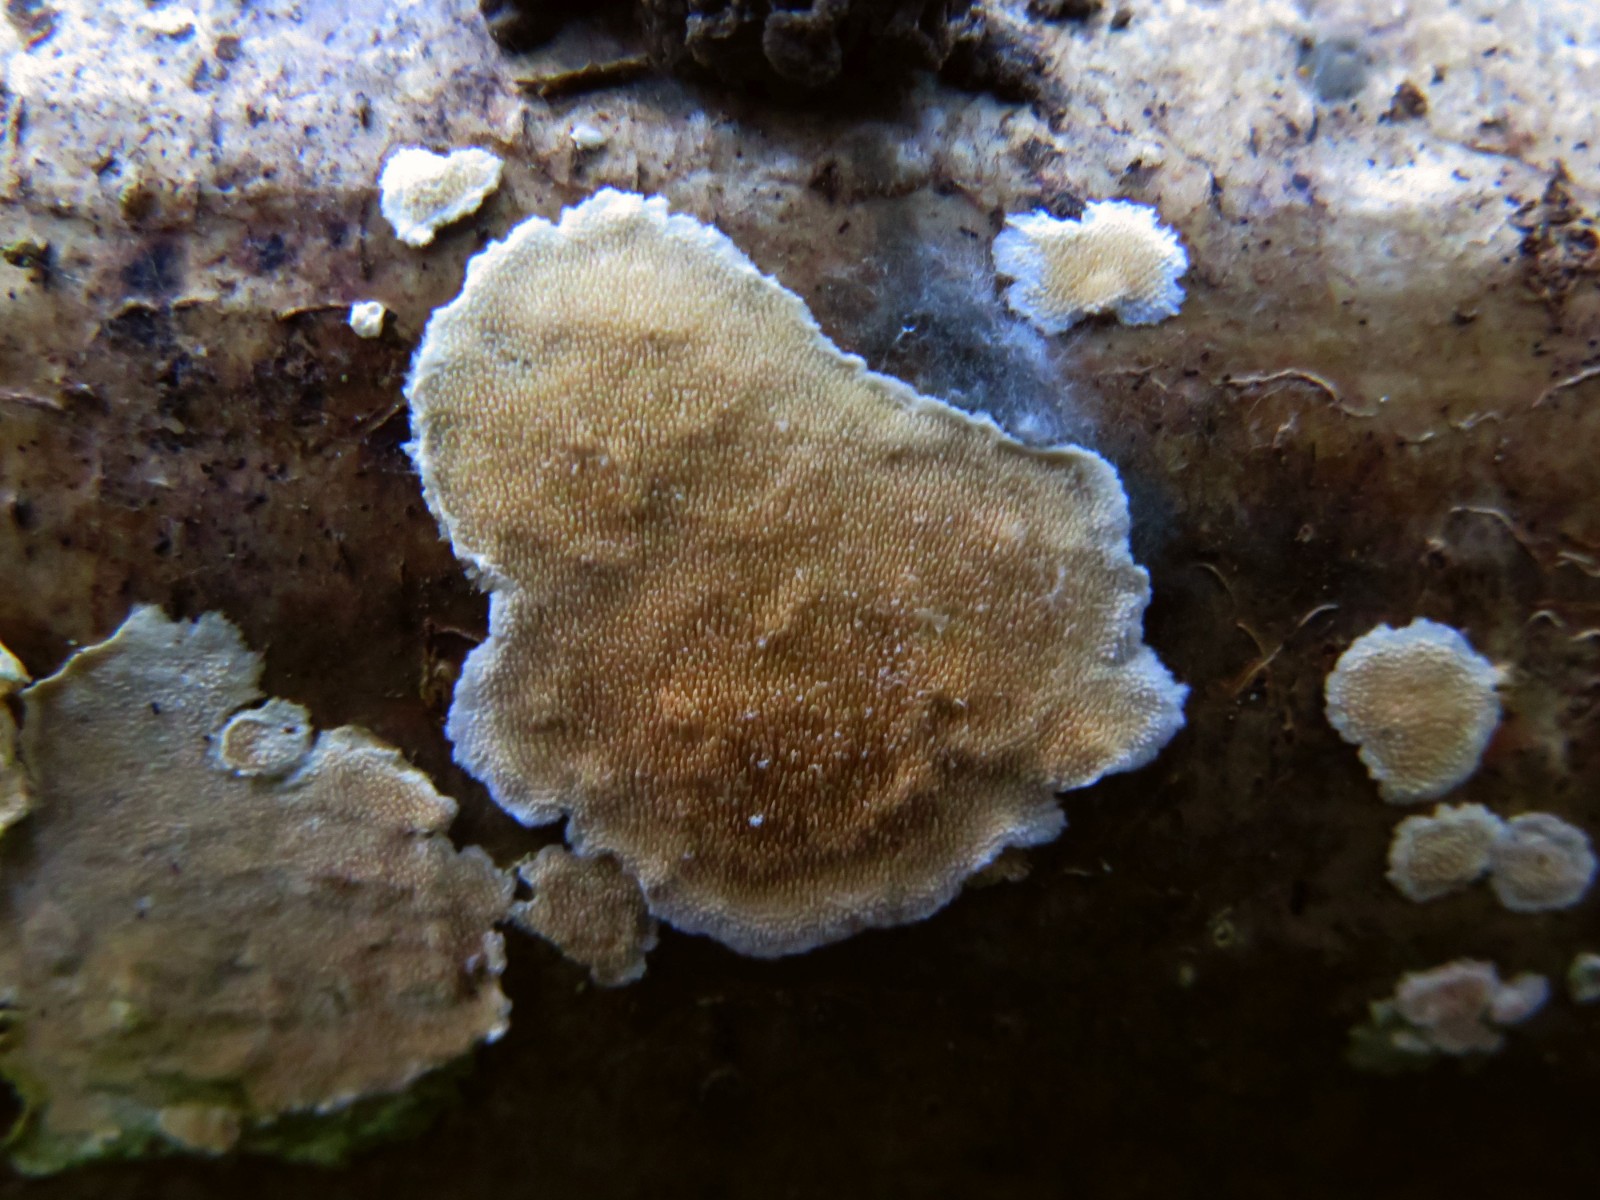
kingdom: Fungi
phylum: Basidiomycota
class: Agaricomycetes
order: Polyporales
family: Steccherinaceae
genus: Steccherinum
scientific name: Steccherinum ochraceum
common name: almindelig skønpig
